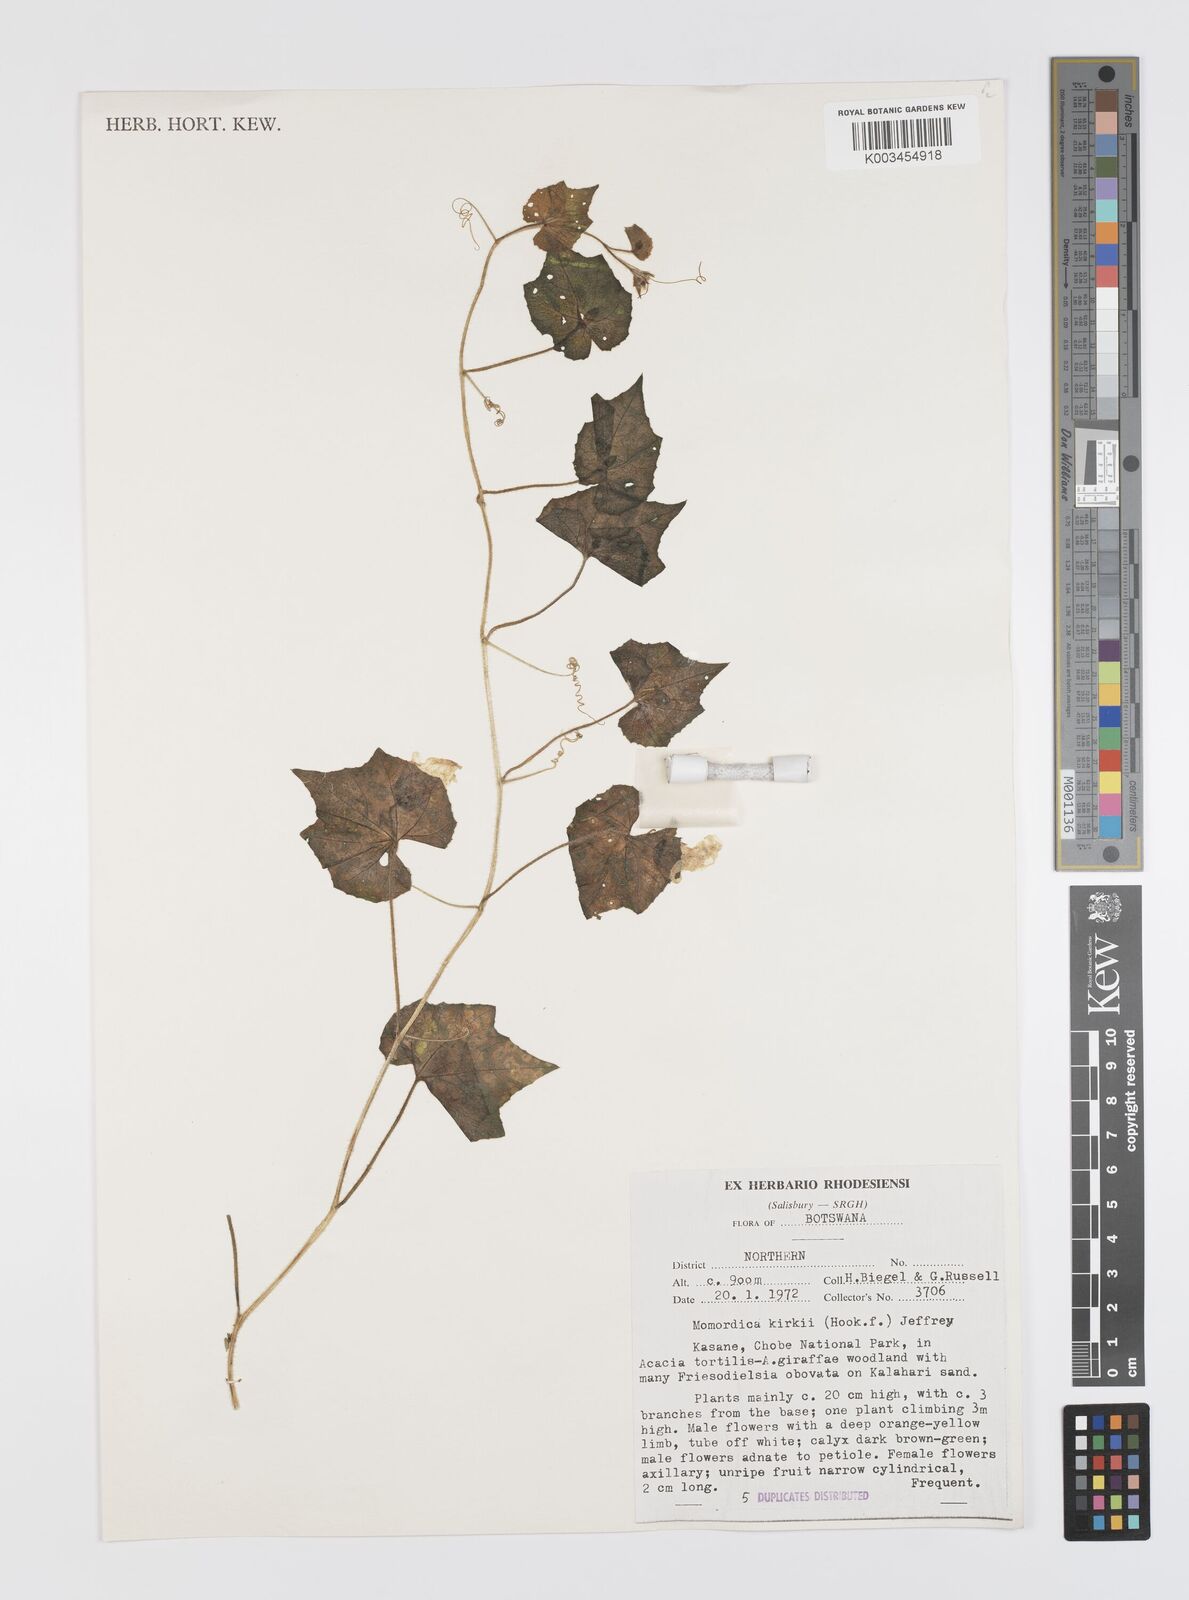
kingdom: Plantae
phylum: Tracheophyta
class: Magnoliopsida
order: Cucurbitales
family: Cucurbitaceae
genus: Momordica
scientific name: Momordica kirkii
